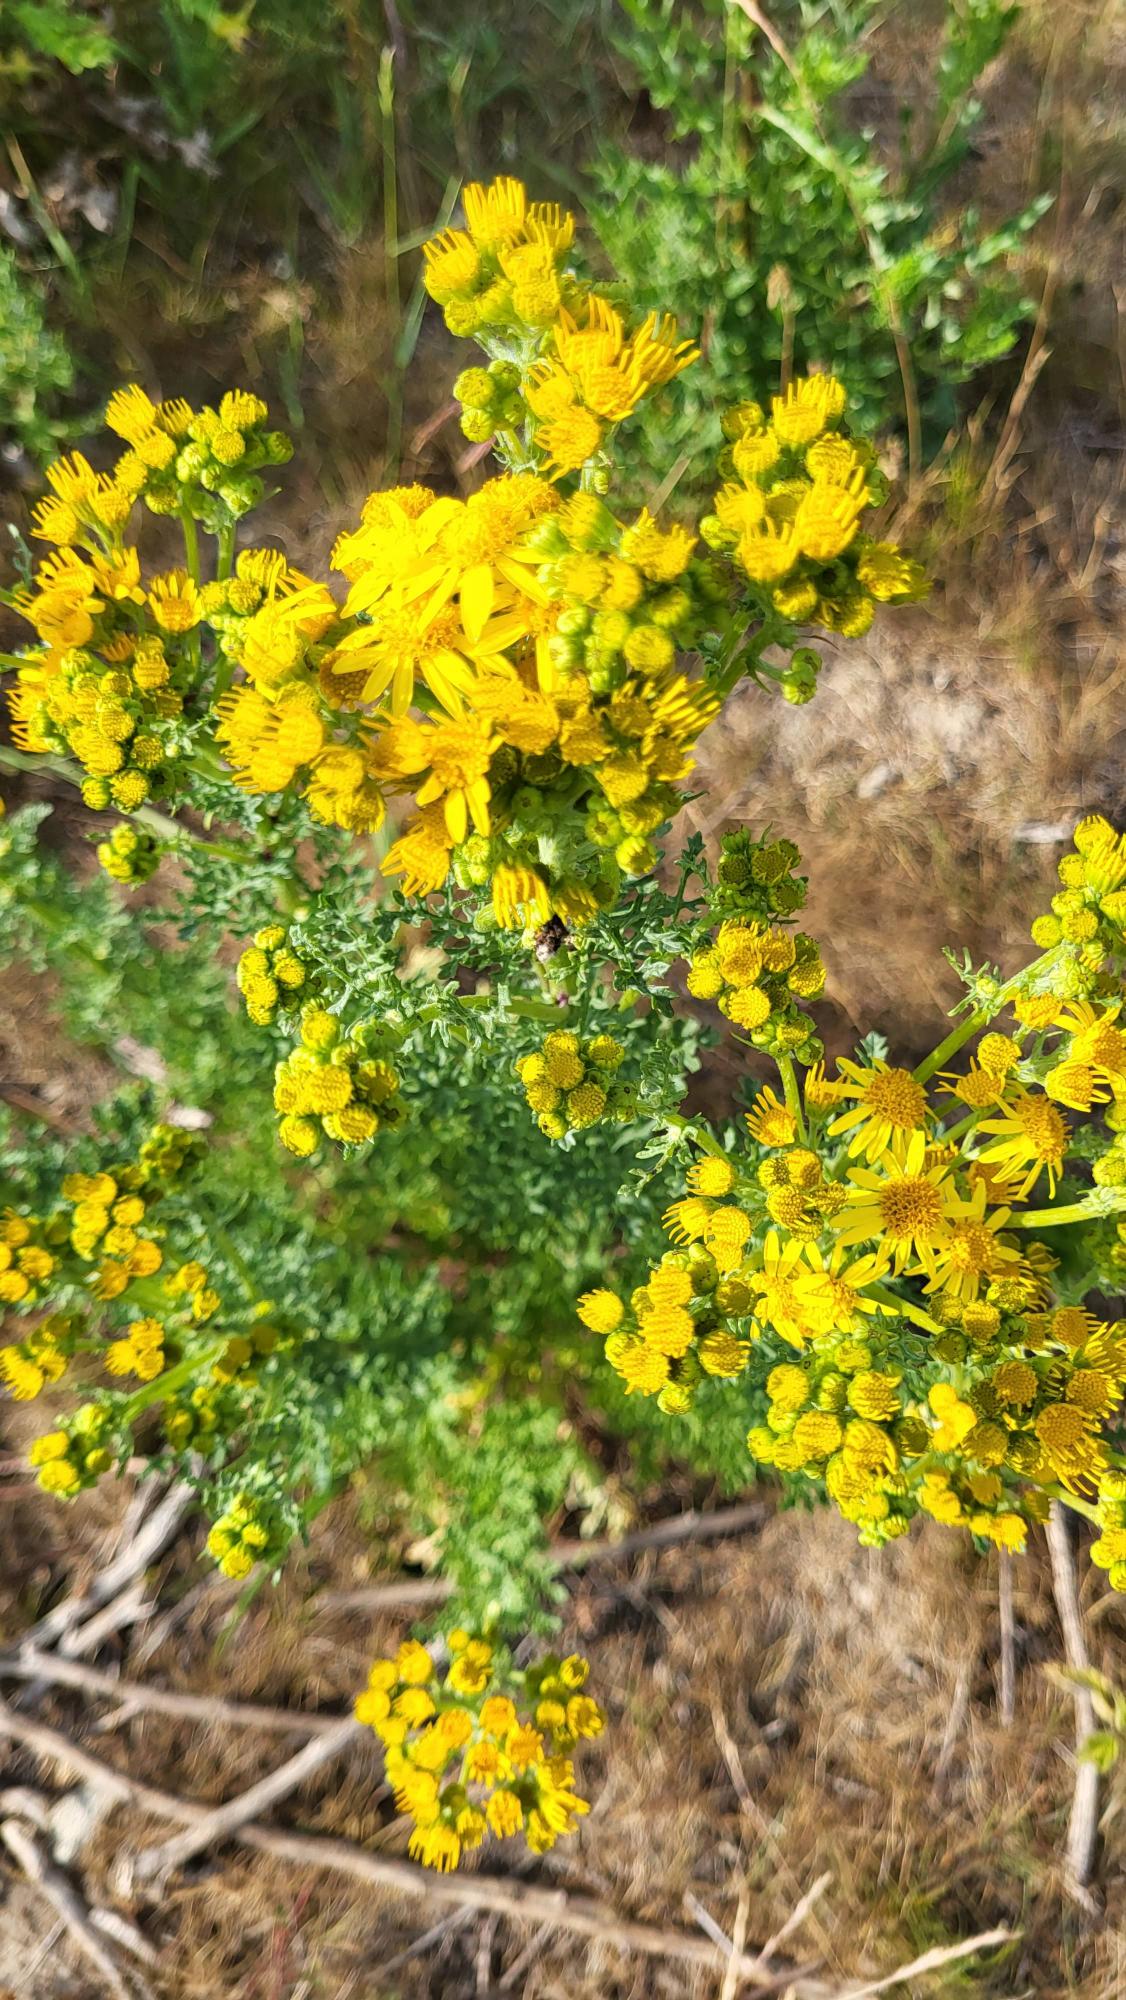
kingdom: Plantae
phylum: Tracheophyta
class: Magnoliopsida
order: Asterales
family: Asteraceae
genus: Jacobaea
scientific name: Jacobaea vulgaris
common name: Eng-brandbæger
